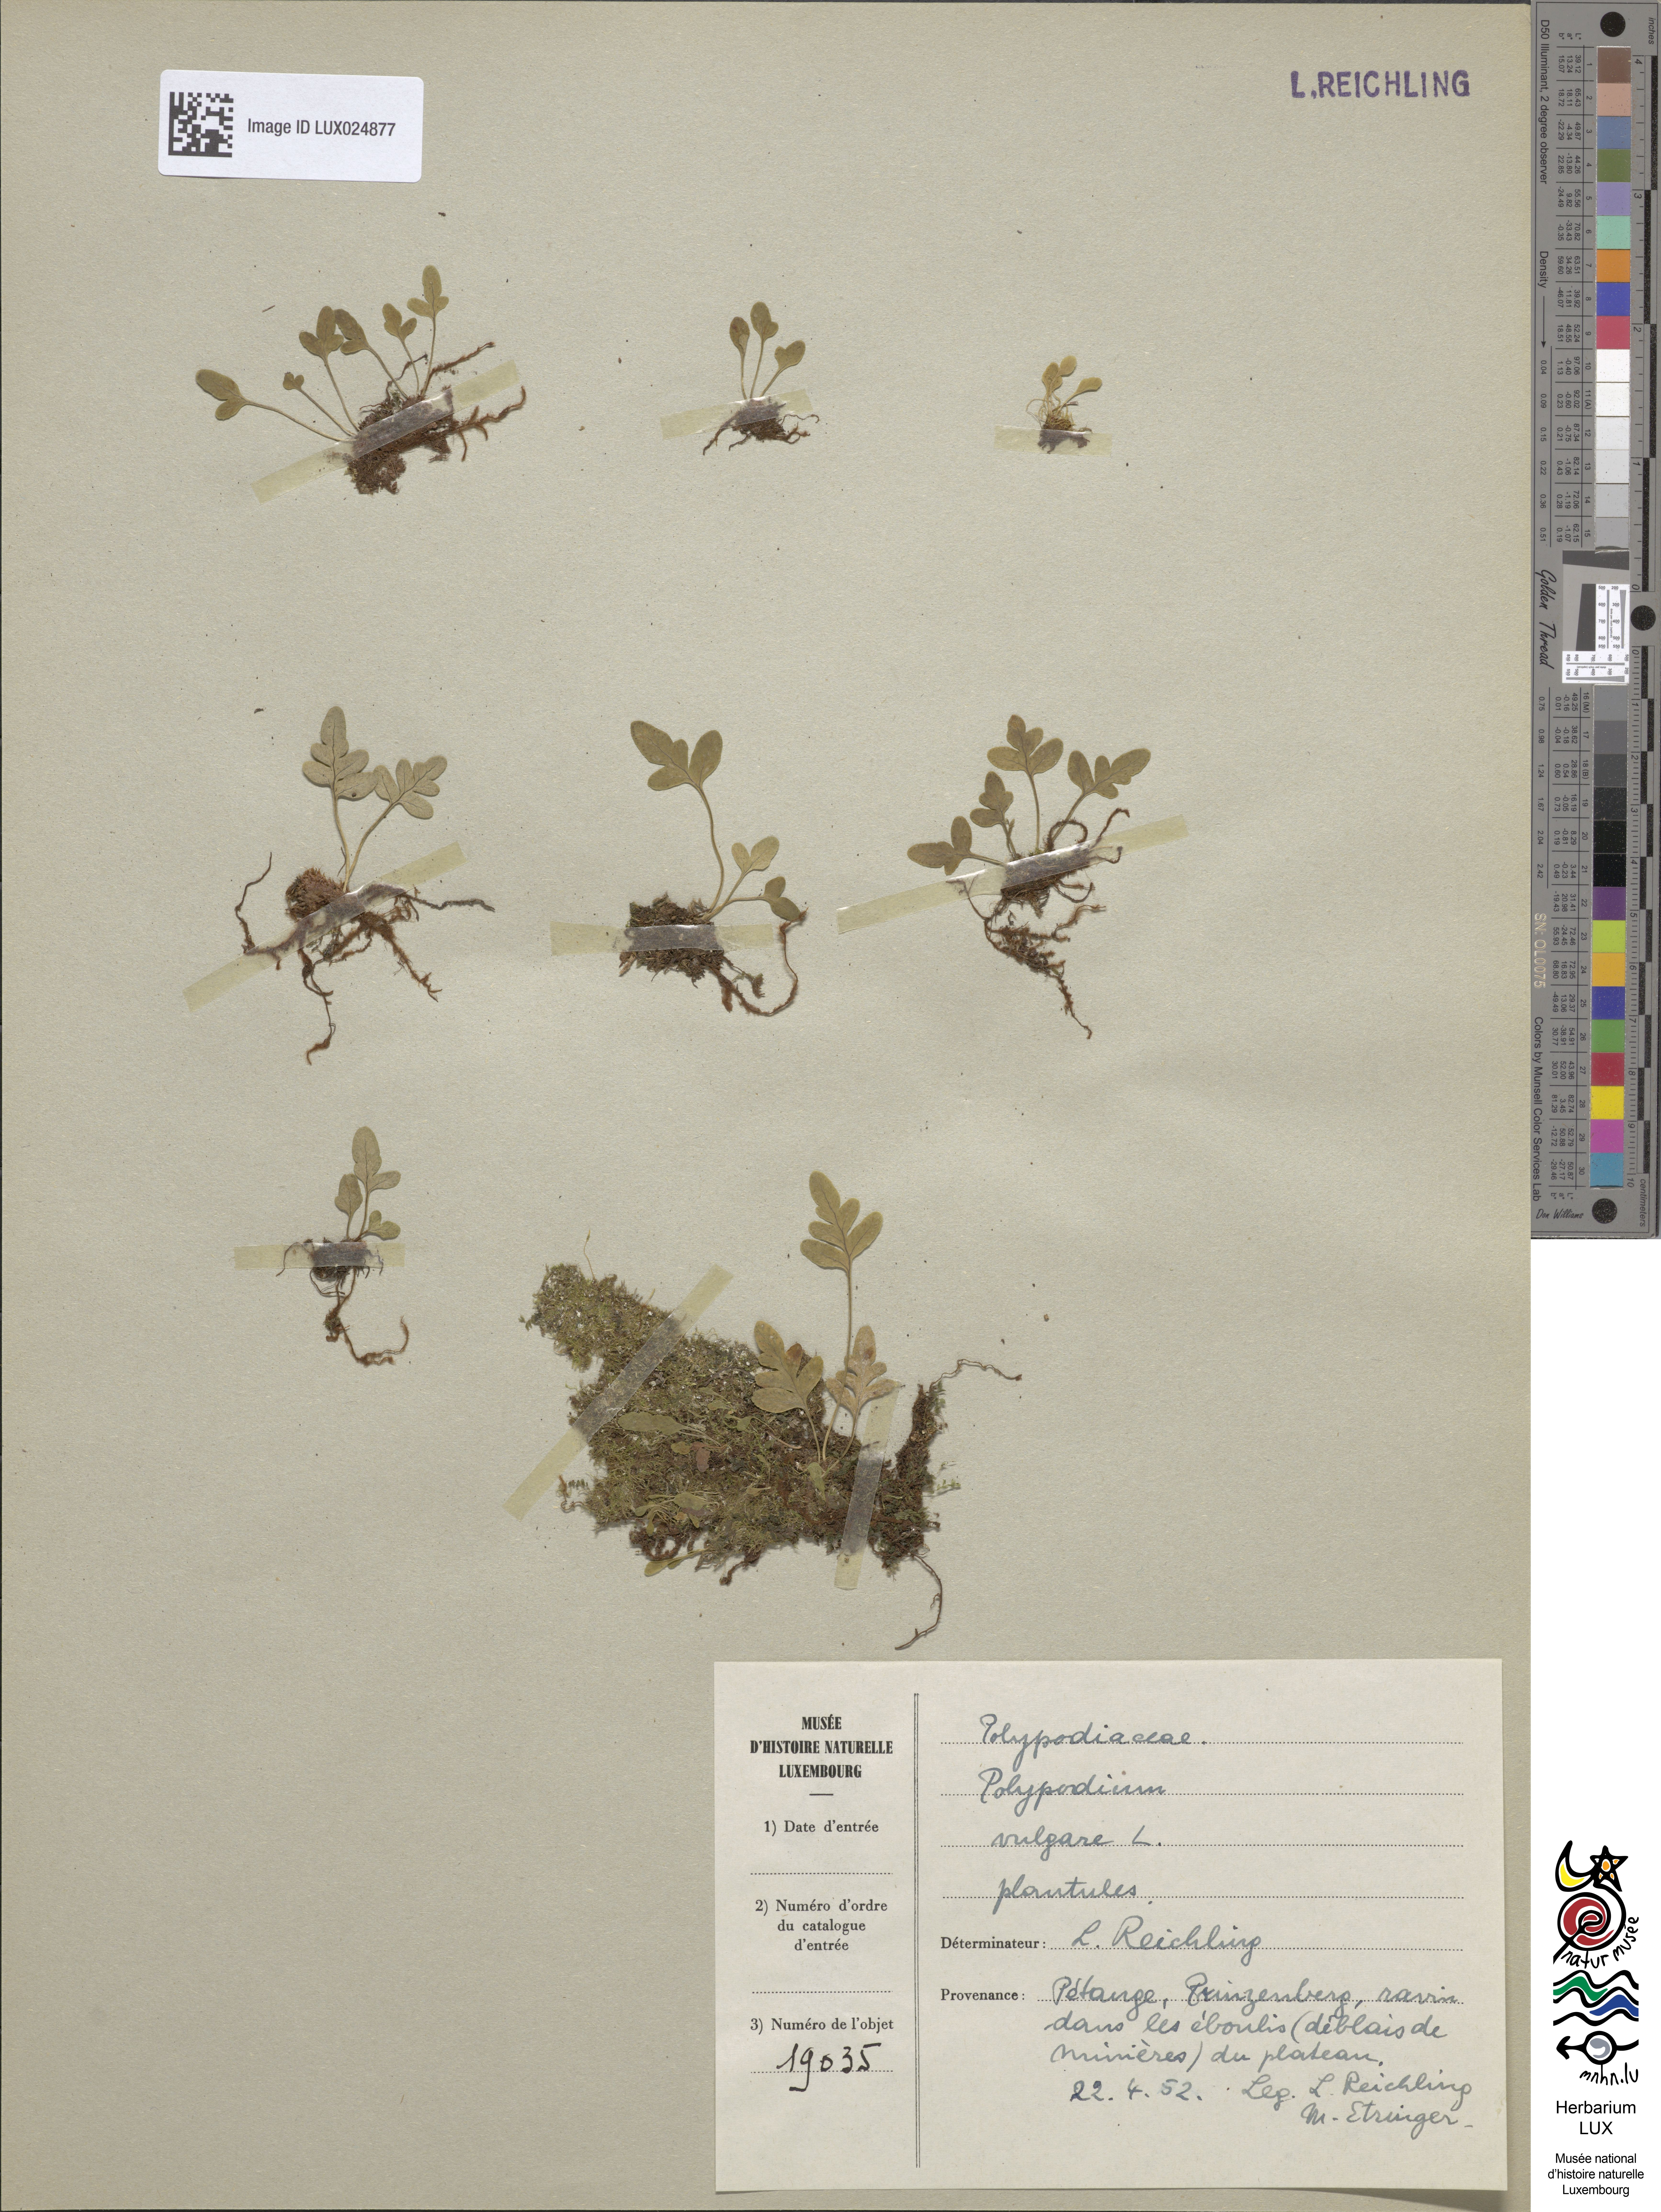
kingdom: Plantae
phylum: Tracheophyta
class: Polypodiopsida
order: Polypodiales
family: Polypodiaceae
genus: Polypodium
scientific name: Polypodium vulgare
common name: Common polypody
